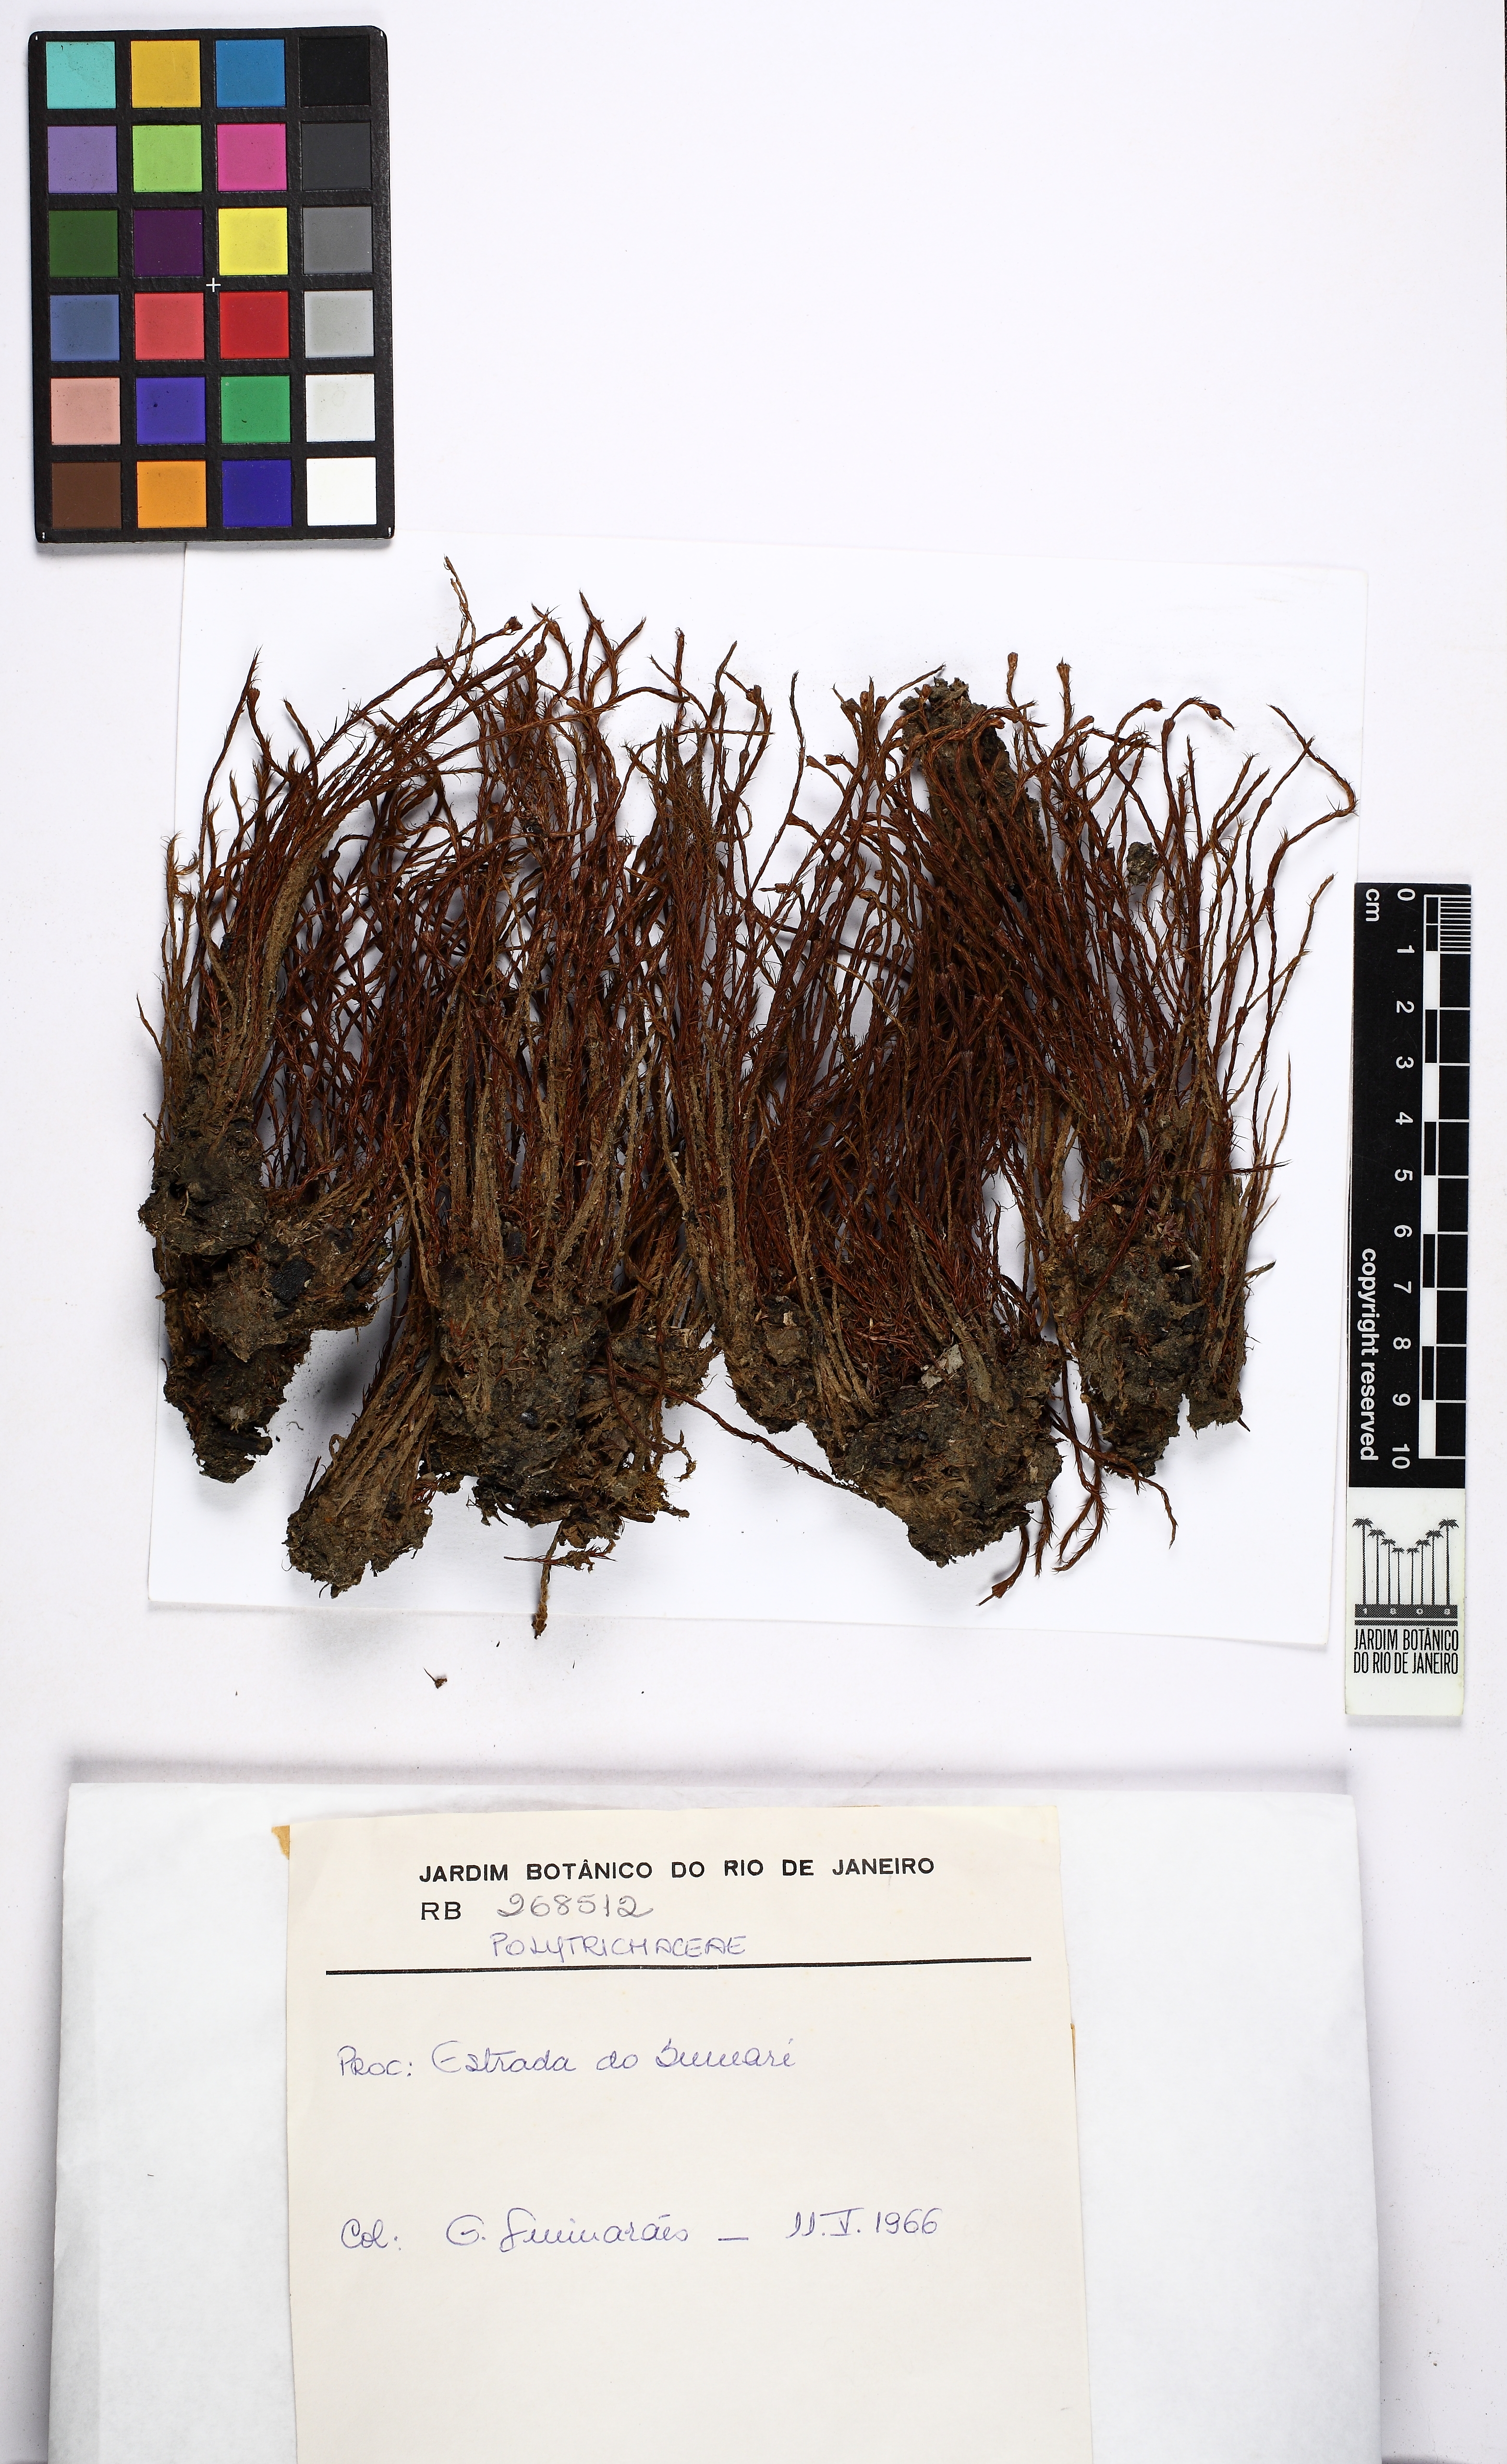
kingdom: Plantae
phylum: Bryophyta
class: Polytrichopsida
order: Polytrichales
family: Polytrichaceae
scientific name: Polytrichaceae
